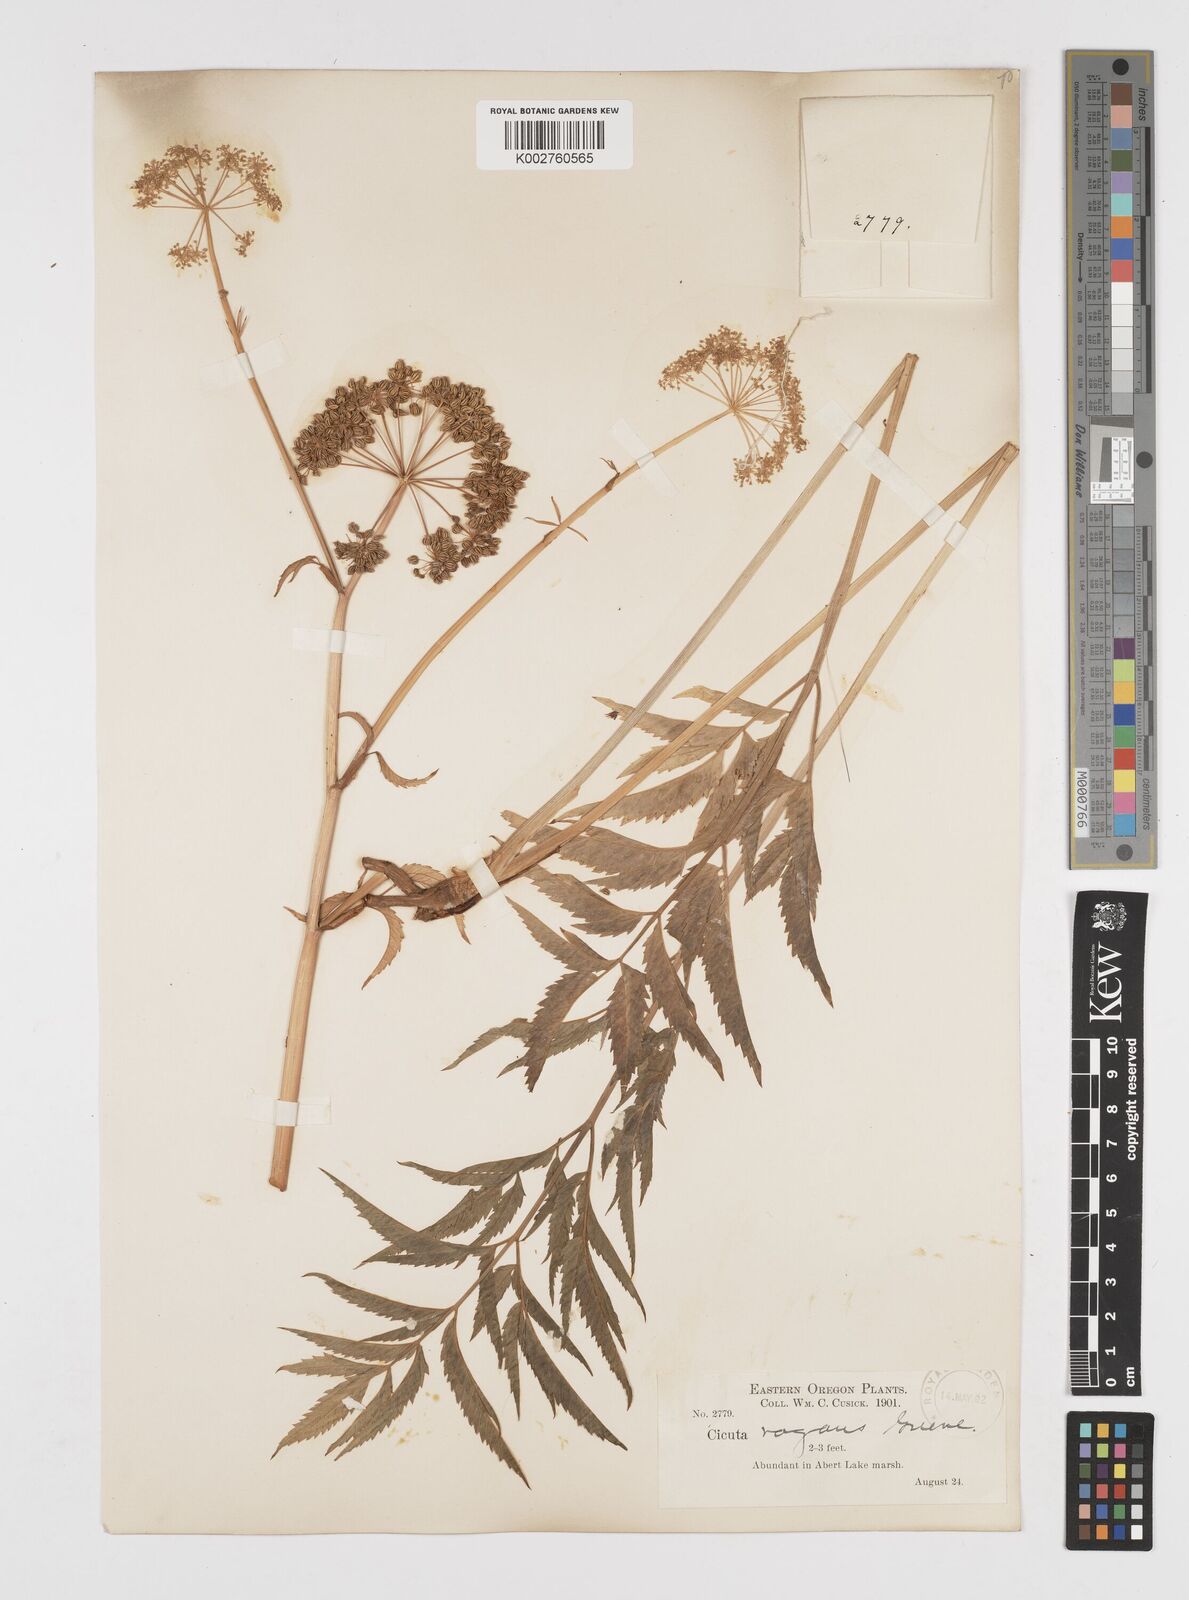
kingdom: Plantae
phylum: Tracheophyta
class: Magnoliopsida
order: Apiales
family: Apiaceae
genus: Cicuta
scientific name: Cicuta douglasii
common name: Western water-hemlock
